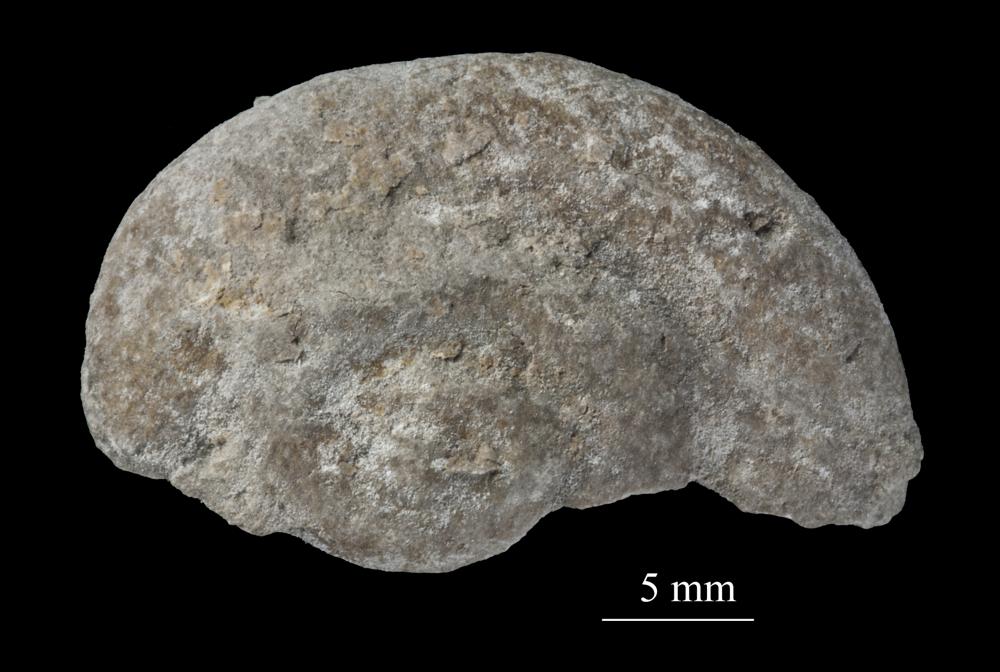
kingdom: Animalia
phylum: Mollusca
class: Gastropoda
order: Neogastropoda
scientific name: Neogastropoda
